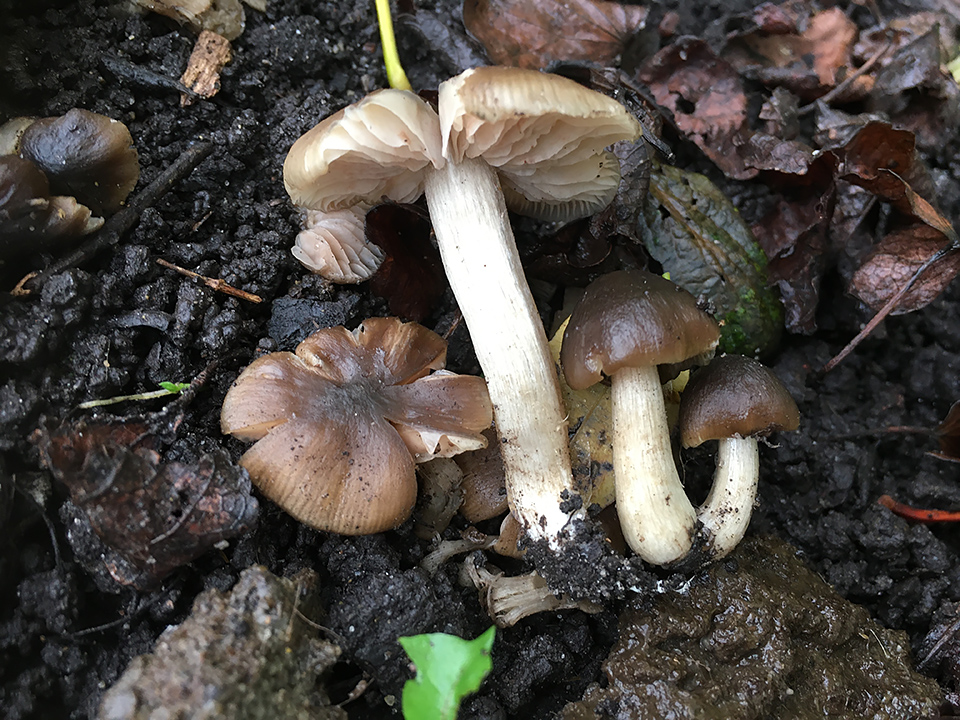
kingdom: Fungi
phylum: Basidiomycota
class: Agaricomycetes
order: Agaricales
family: Entolomataceae
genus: Entoloma
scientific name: Entoloma sordidulum
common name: smudsig rødblad
